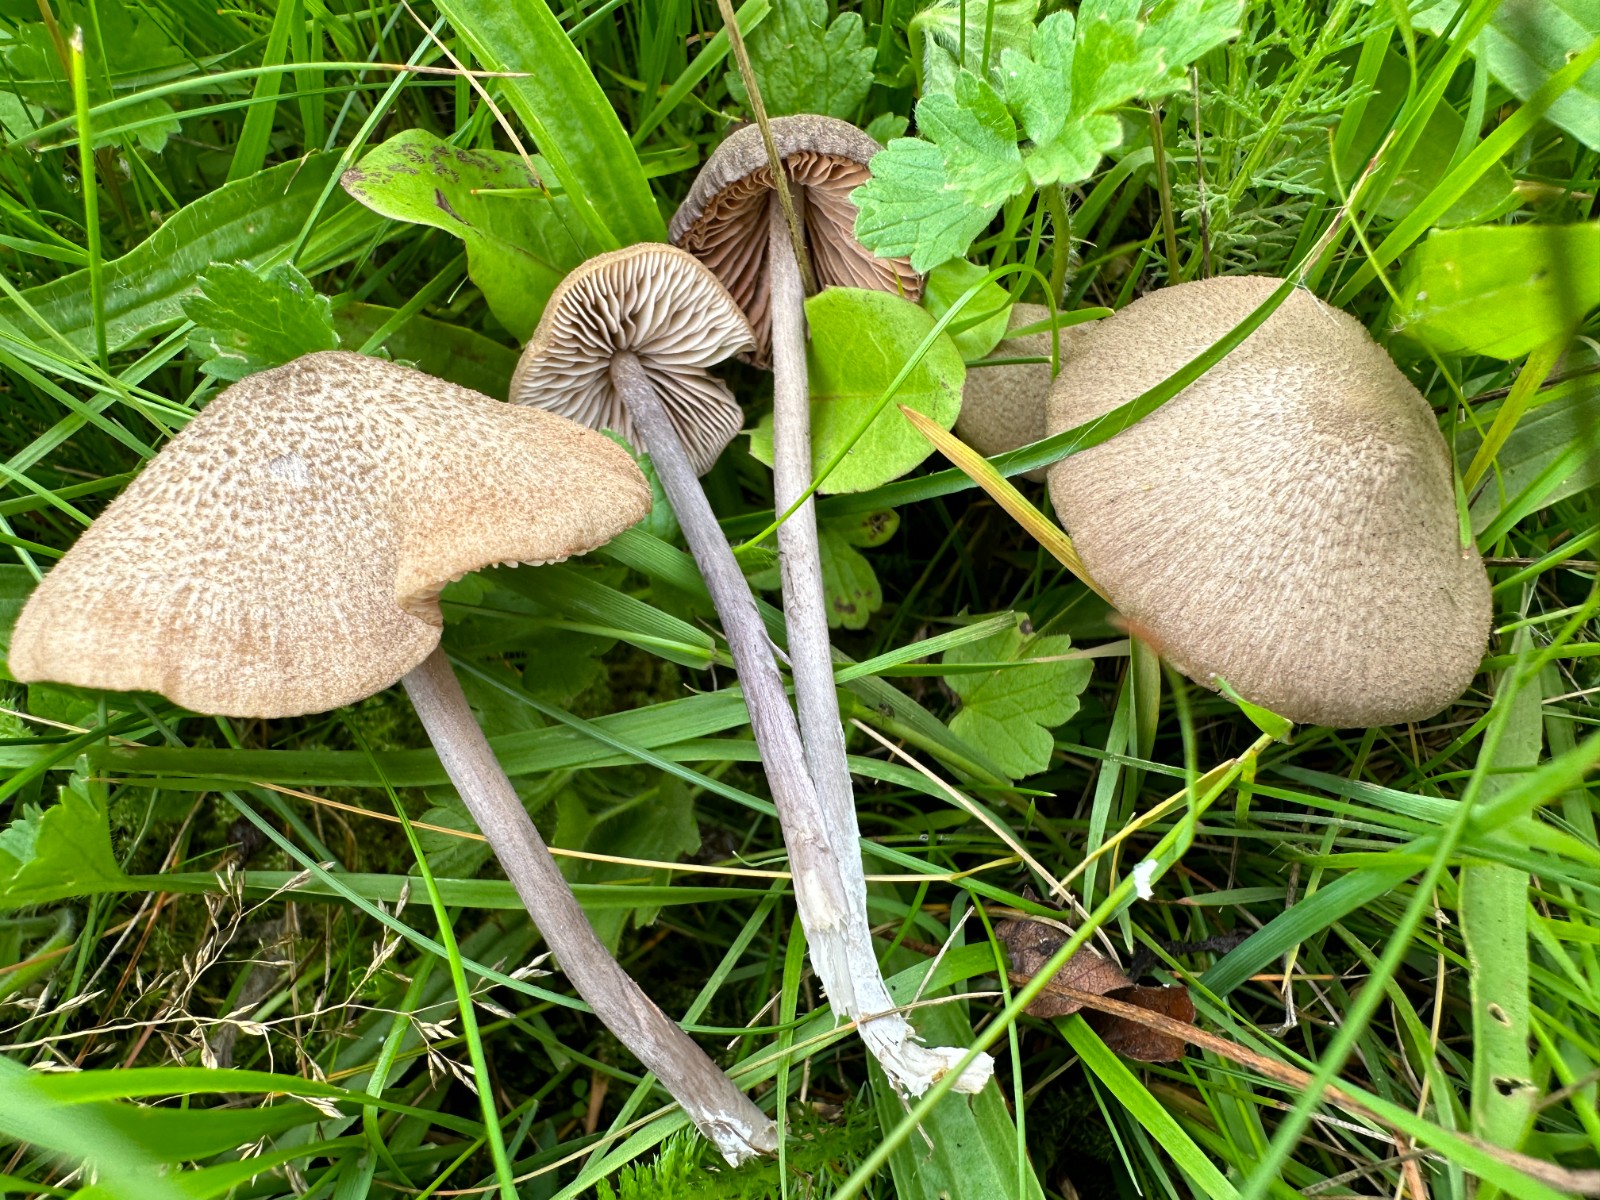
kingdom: Fungi
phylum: Basidiomycota
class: Agaricomycetes
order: Agaricales
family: Entolomataceae
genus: Entoloma
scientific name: Entoloma griseocyaneum
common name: gråblå rødblad
